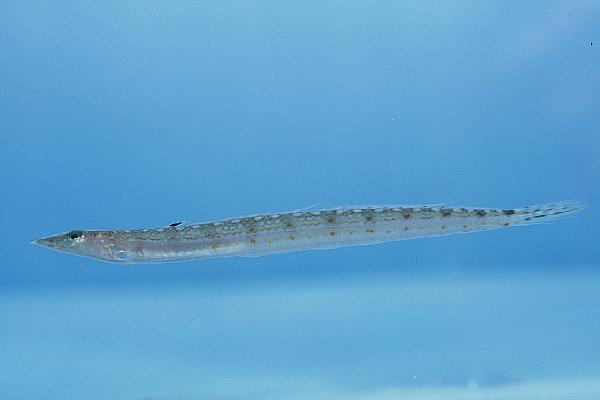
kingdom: Animalia
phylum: Chordata
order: Perciformes
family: Trichonotidae
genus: Trichonotus
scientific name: Trichonotus marleyi
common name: Sand diver
